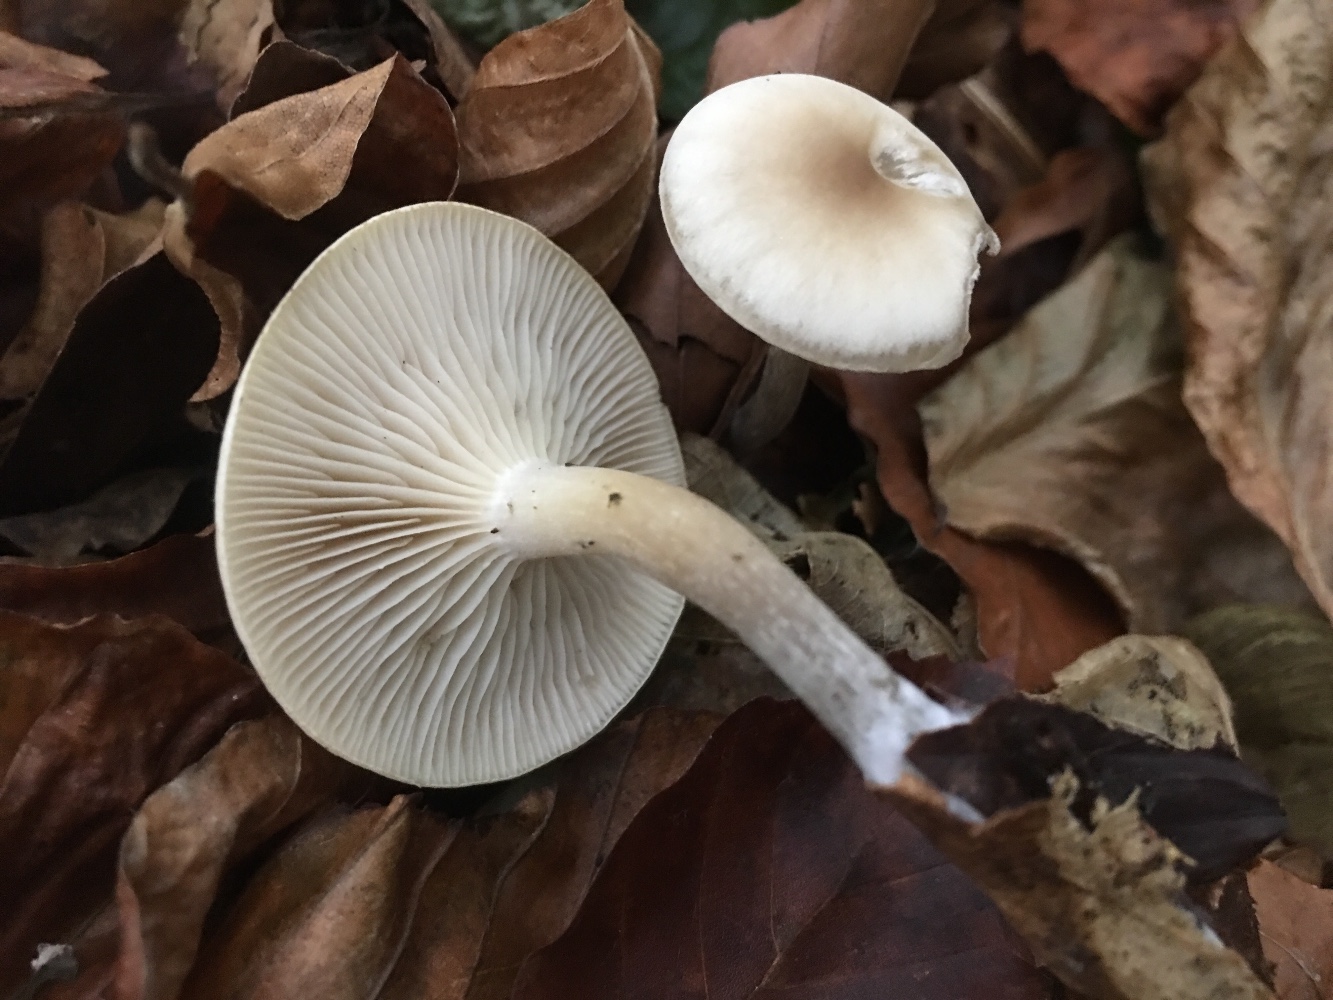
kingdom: Fungi
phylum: Basidiomycota
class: Agaricomycetes
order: Agaricales
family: Tricholomataceae
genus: Clitocybe
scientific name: Clitocybe metachroa
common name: grå tragthat
